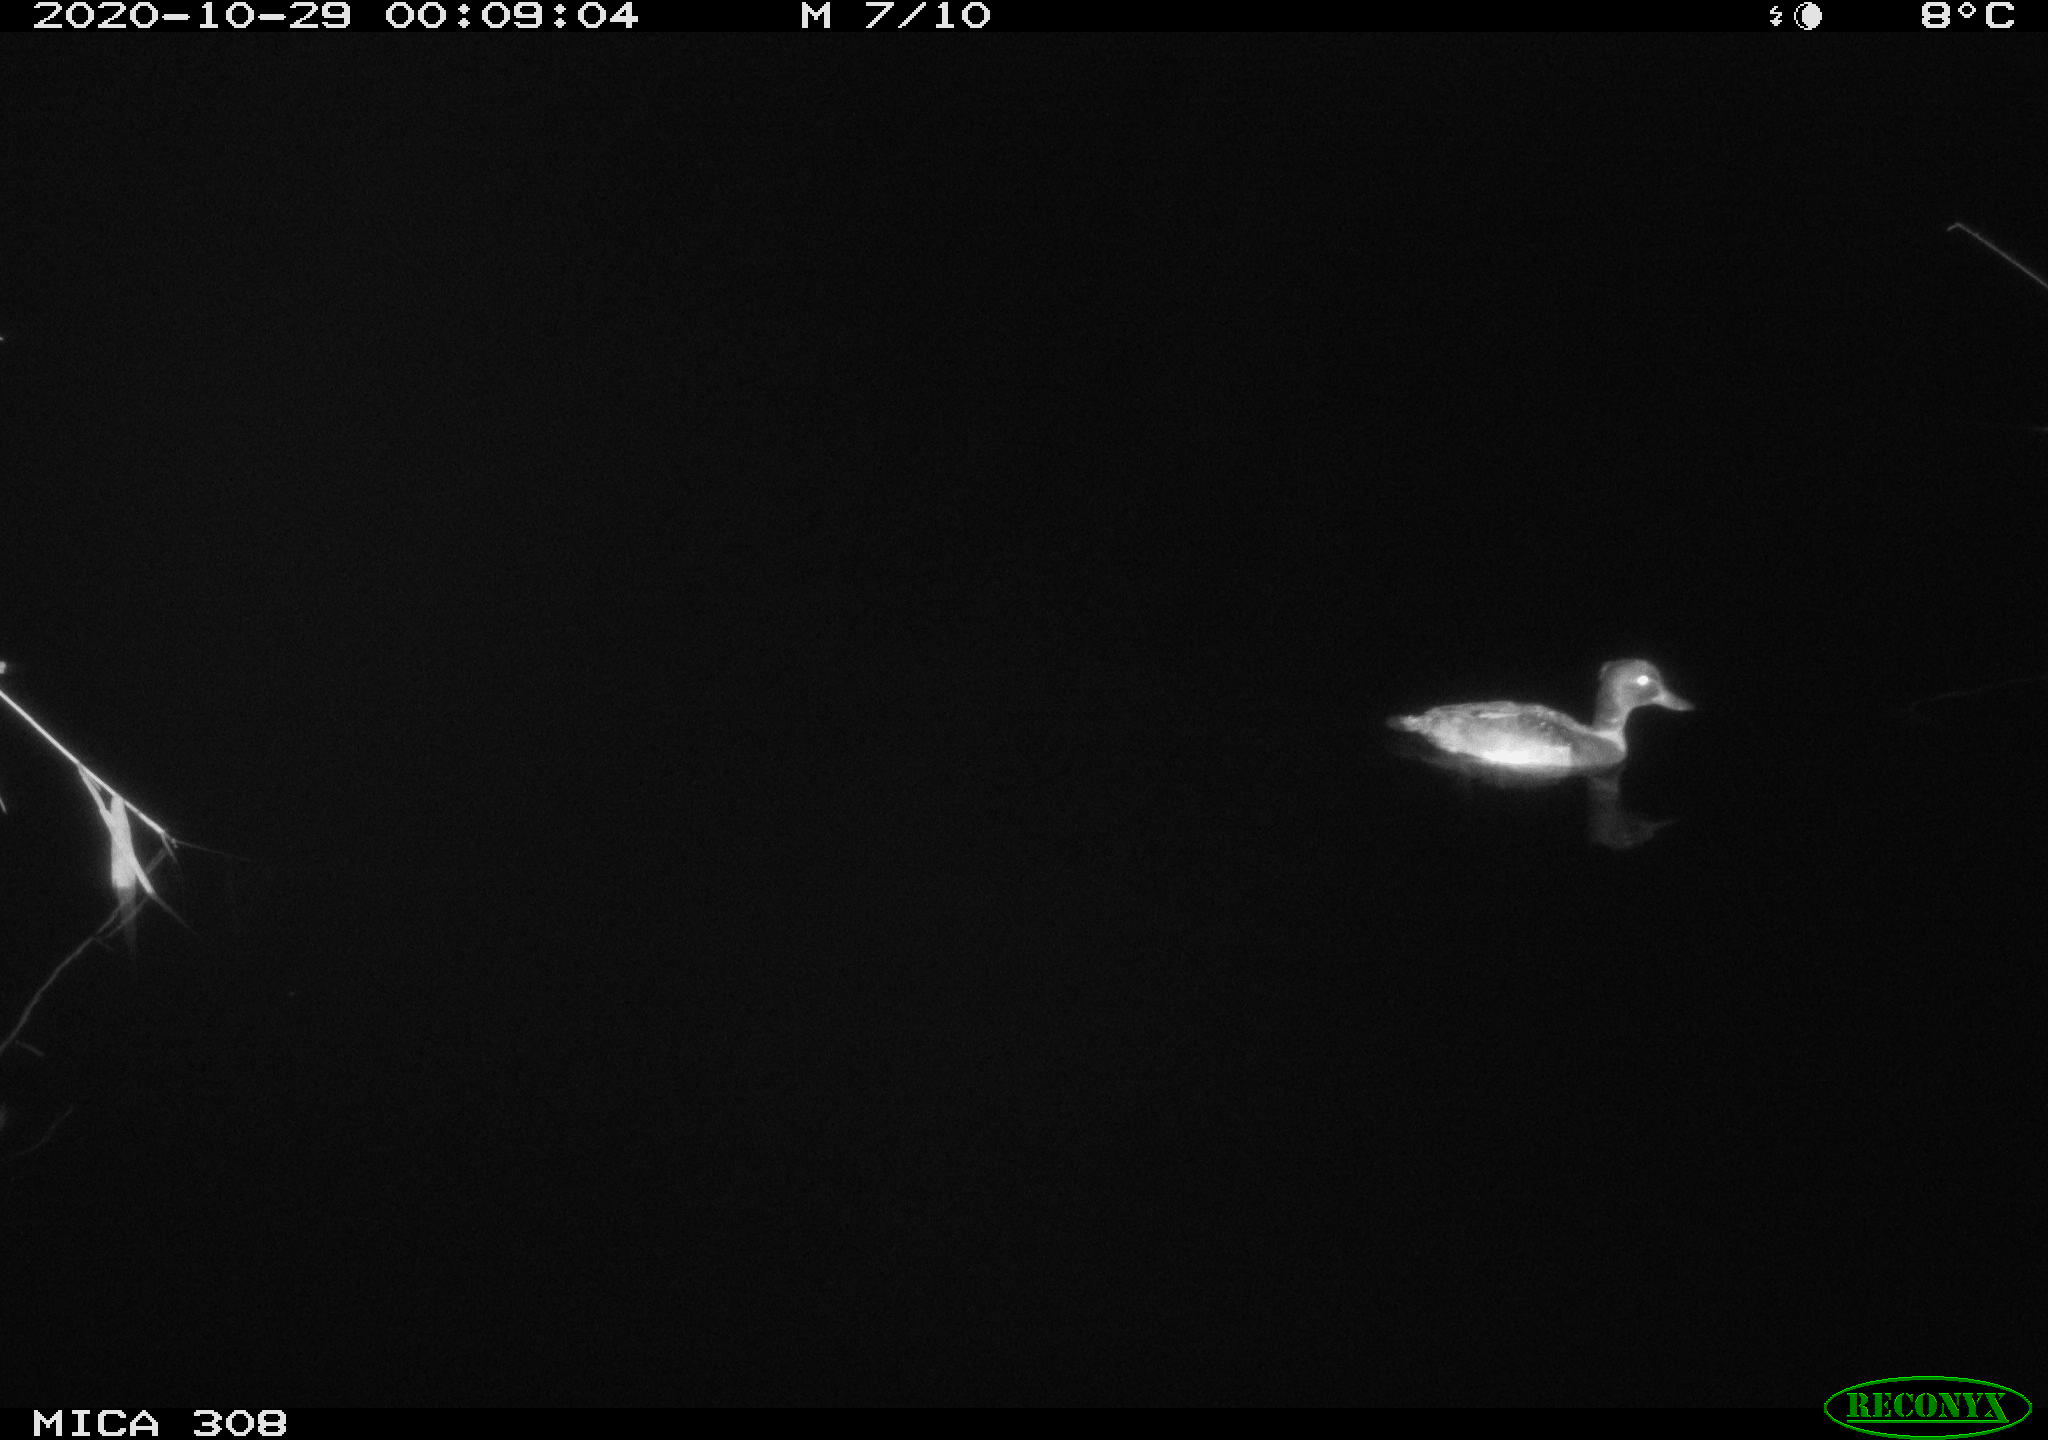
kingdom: Animalia
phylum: Chordata
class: Aves
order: Anseriformes
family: Anatidae
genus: Anas
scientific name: Anas platyrhynchos
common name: Mallard
